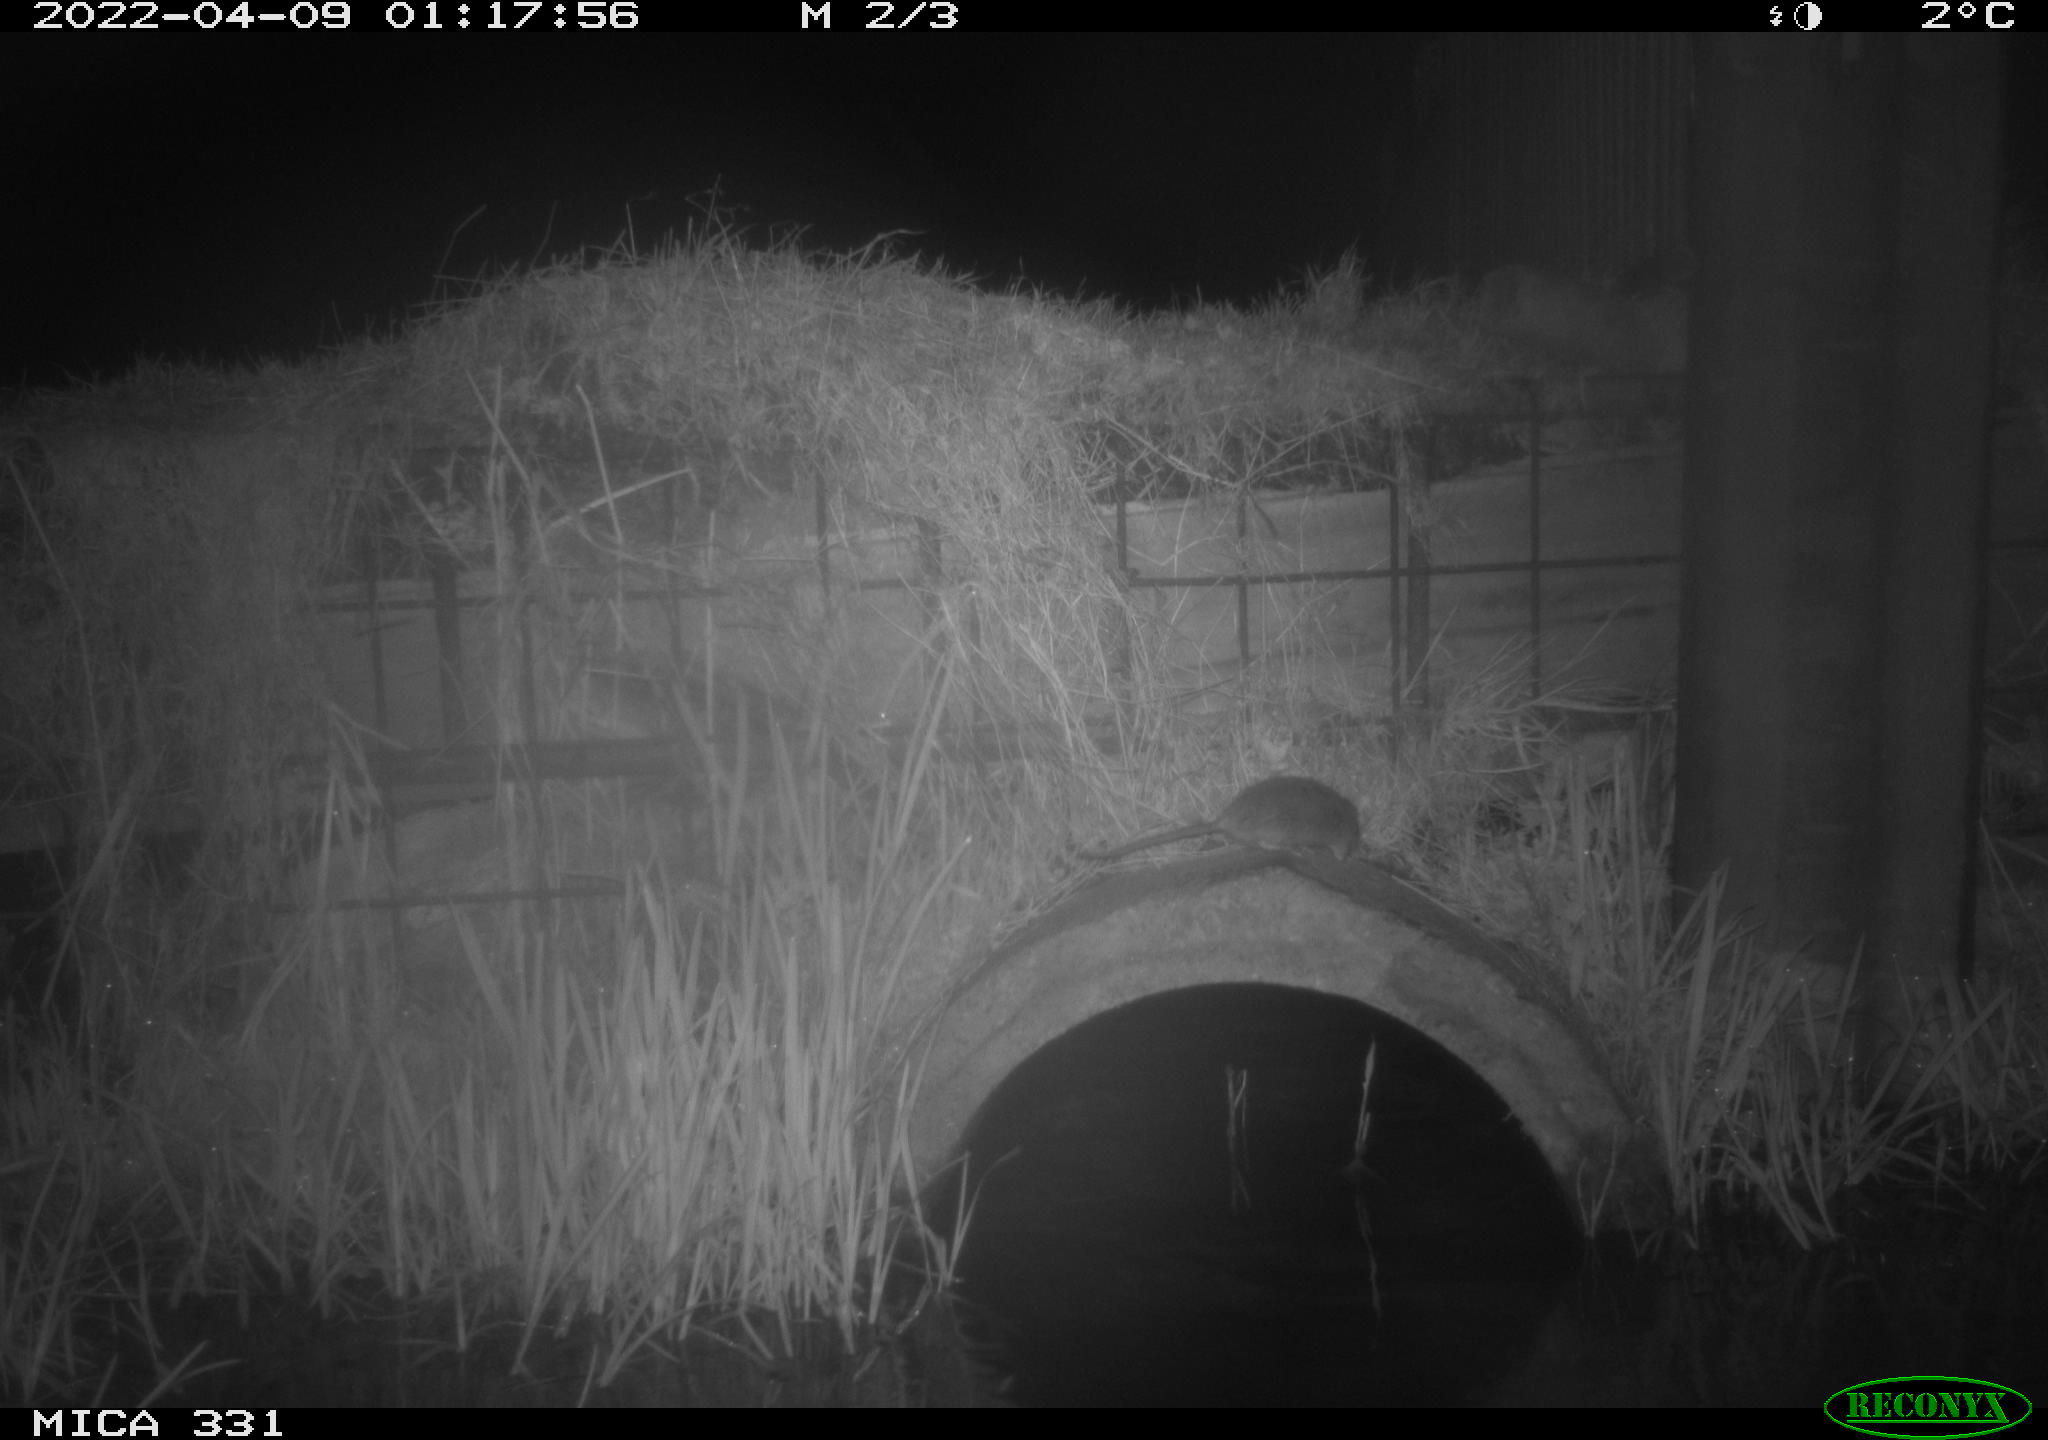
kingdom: Animalia
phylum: Chordata
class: Mammalia
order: Rodentia
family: Muridae
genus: Rattus
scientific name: Rattus norvegicus
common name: Brown rat
